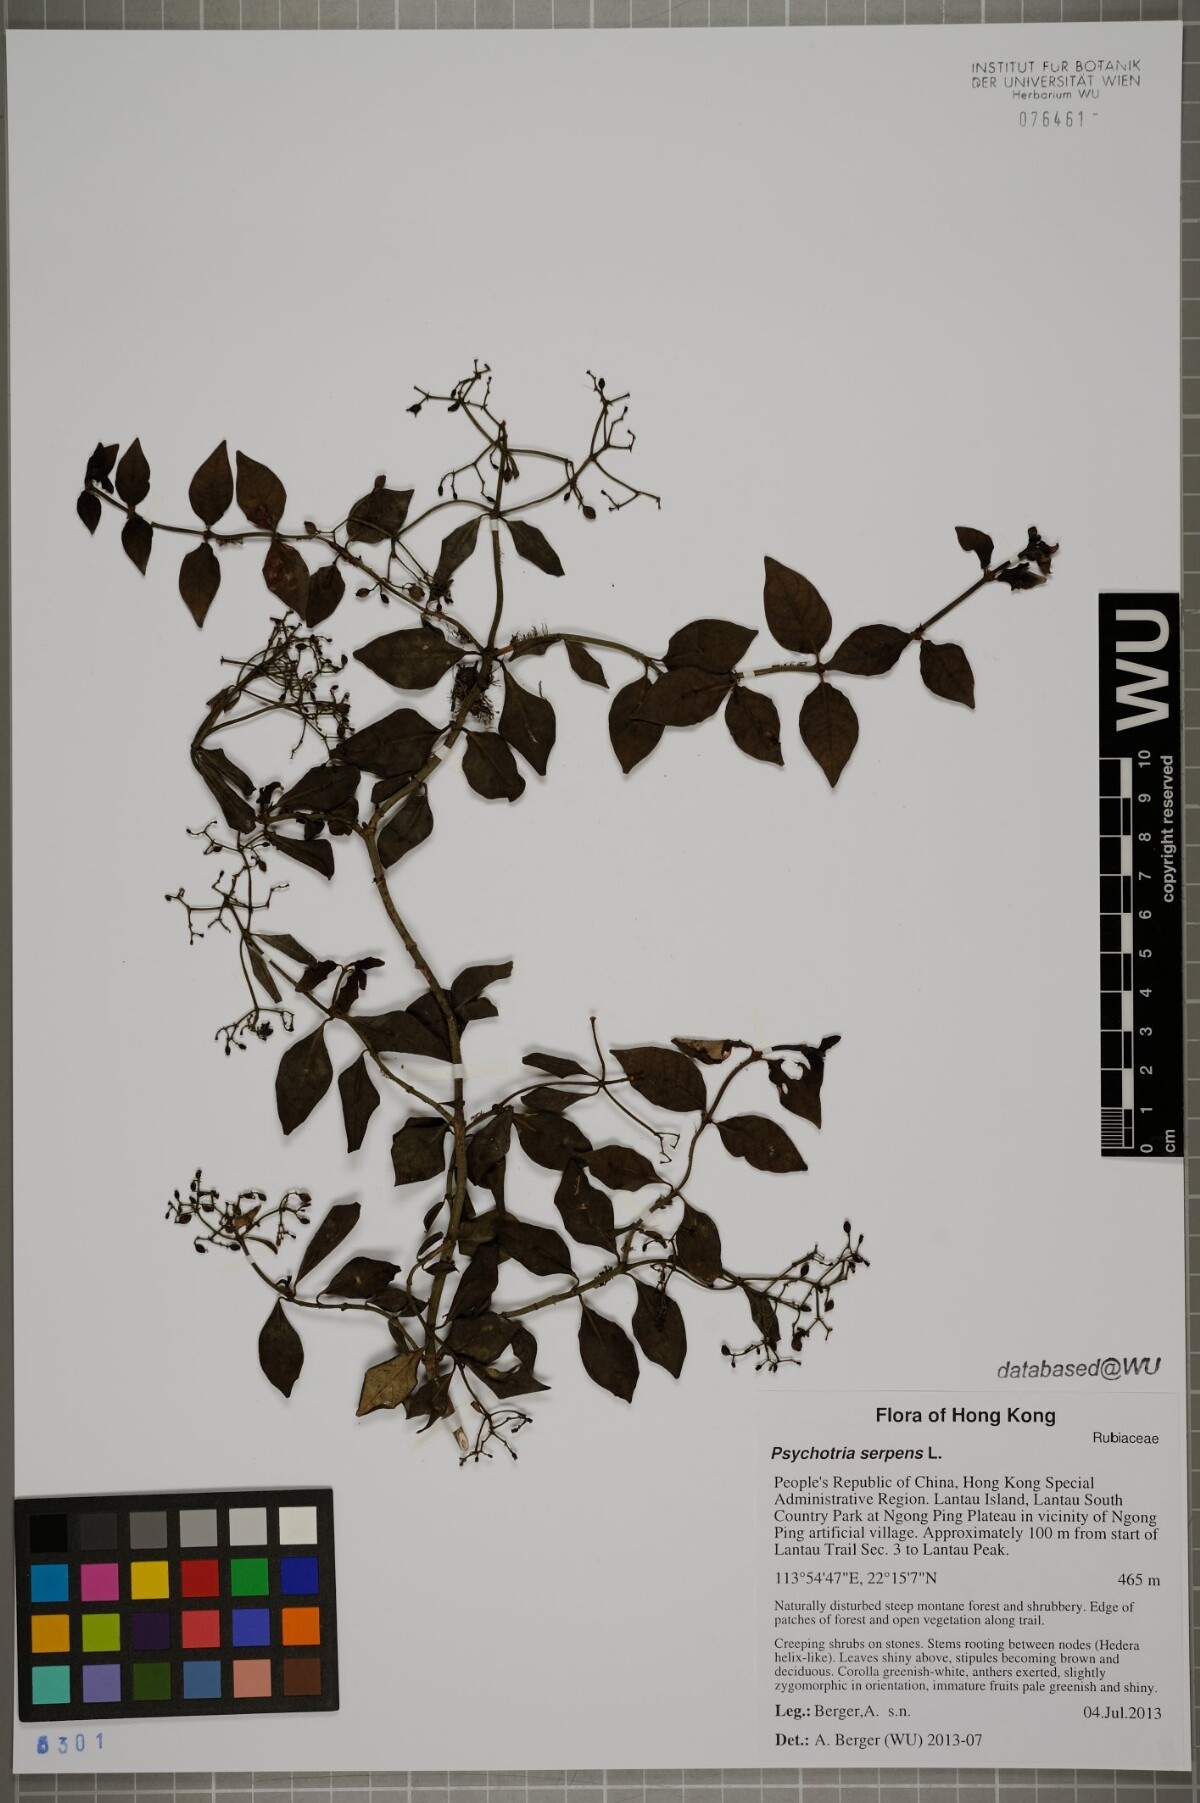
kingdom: Plantae
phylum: Tracheophyta
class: Magnoliopsida
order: Gentianales
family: Rubiaceae
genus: Psychotria
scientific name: Psychotria serpens
